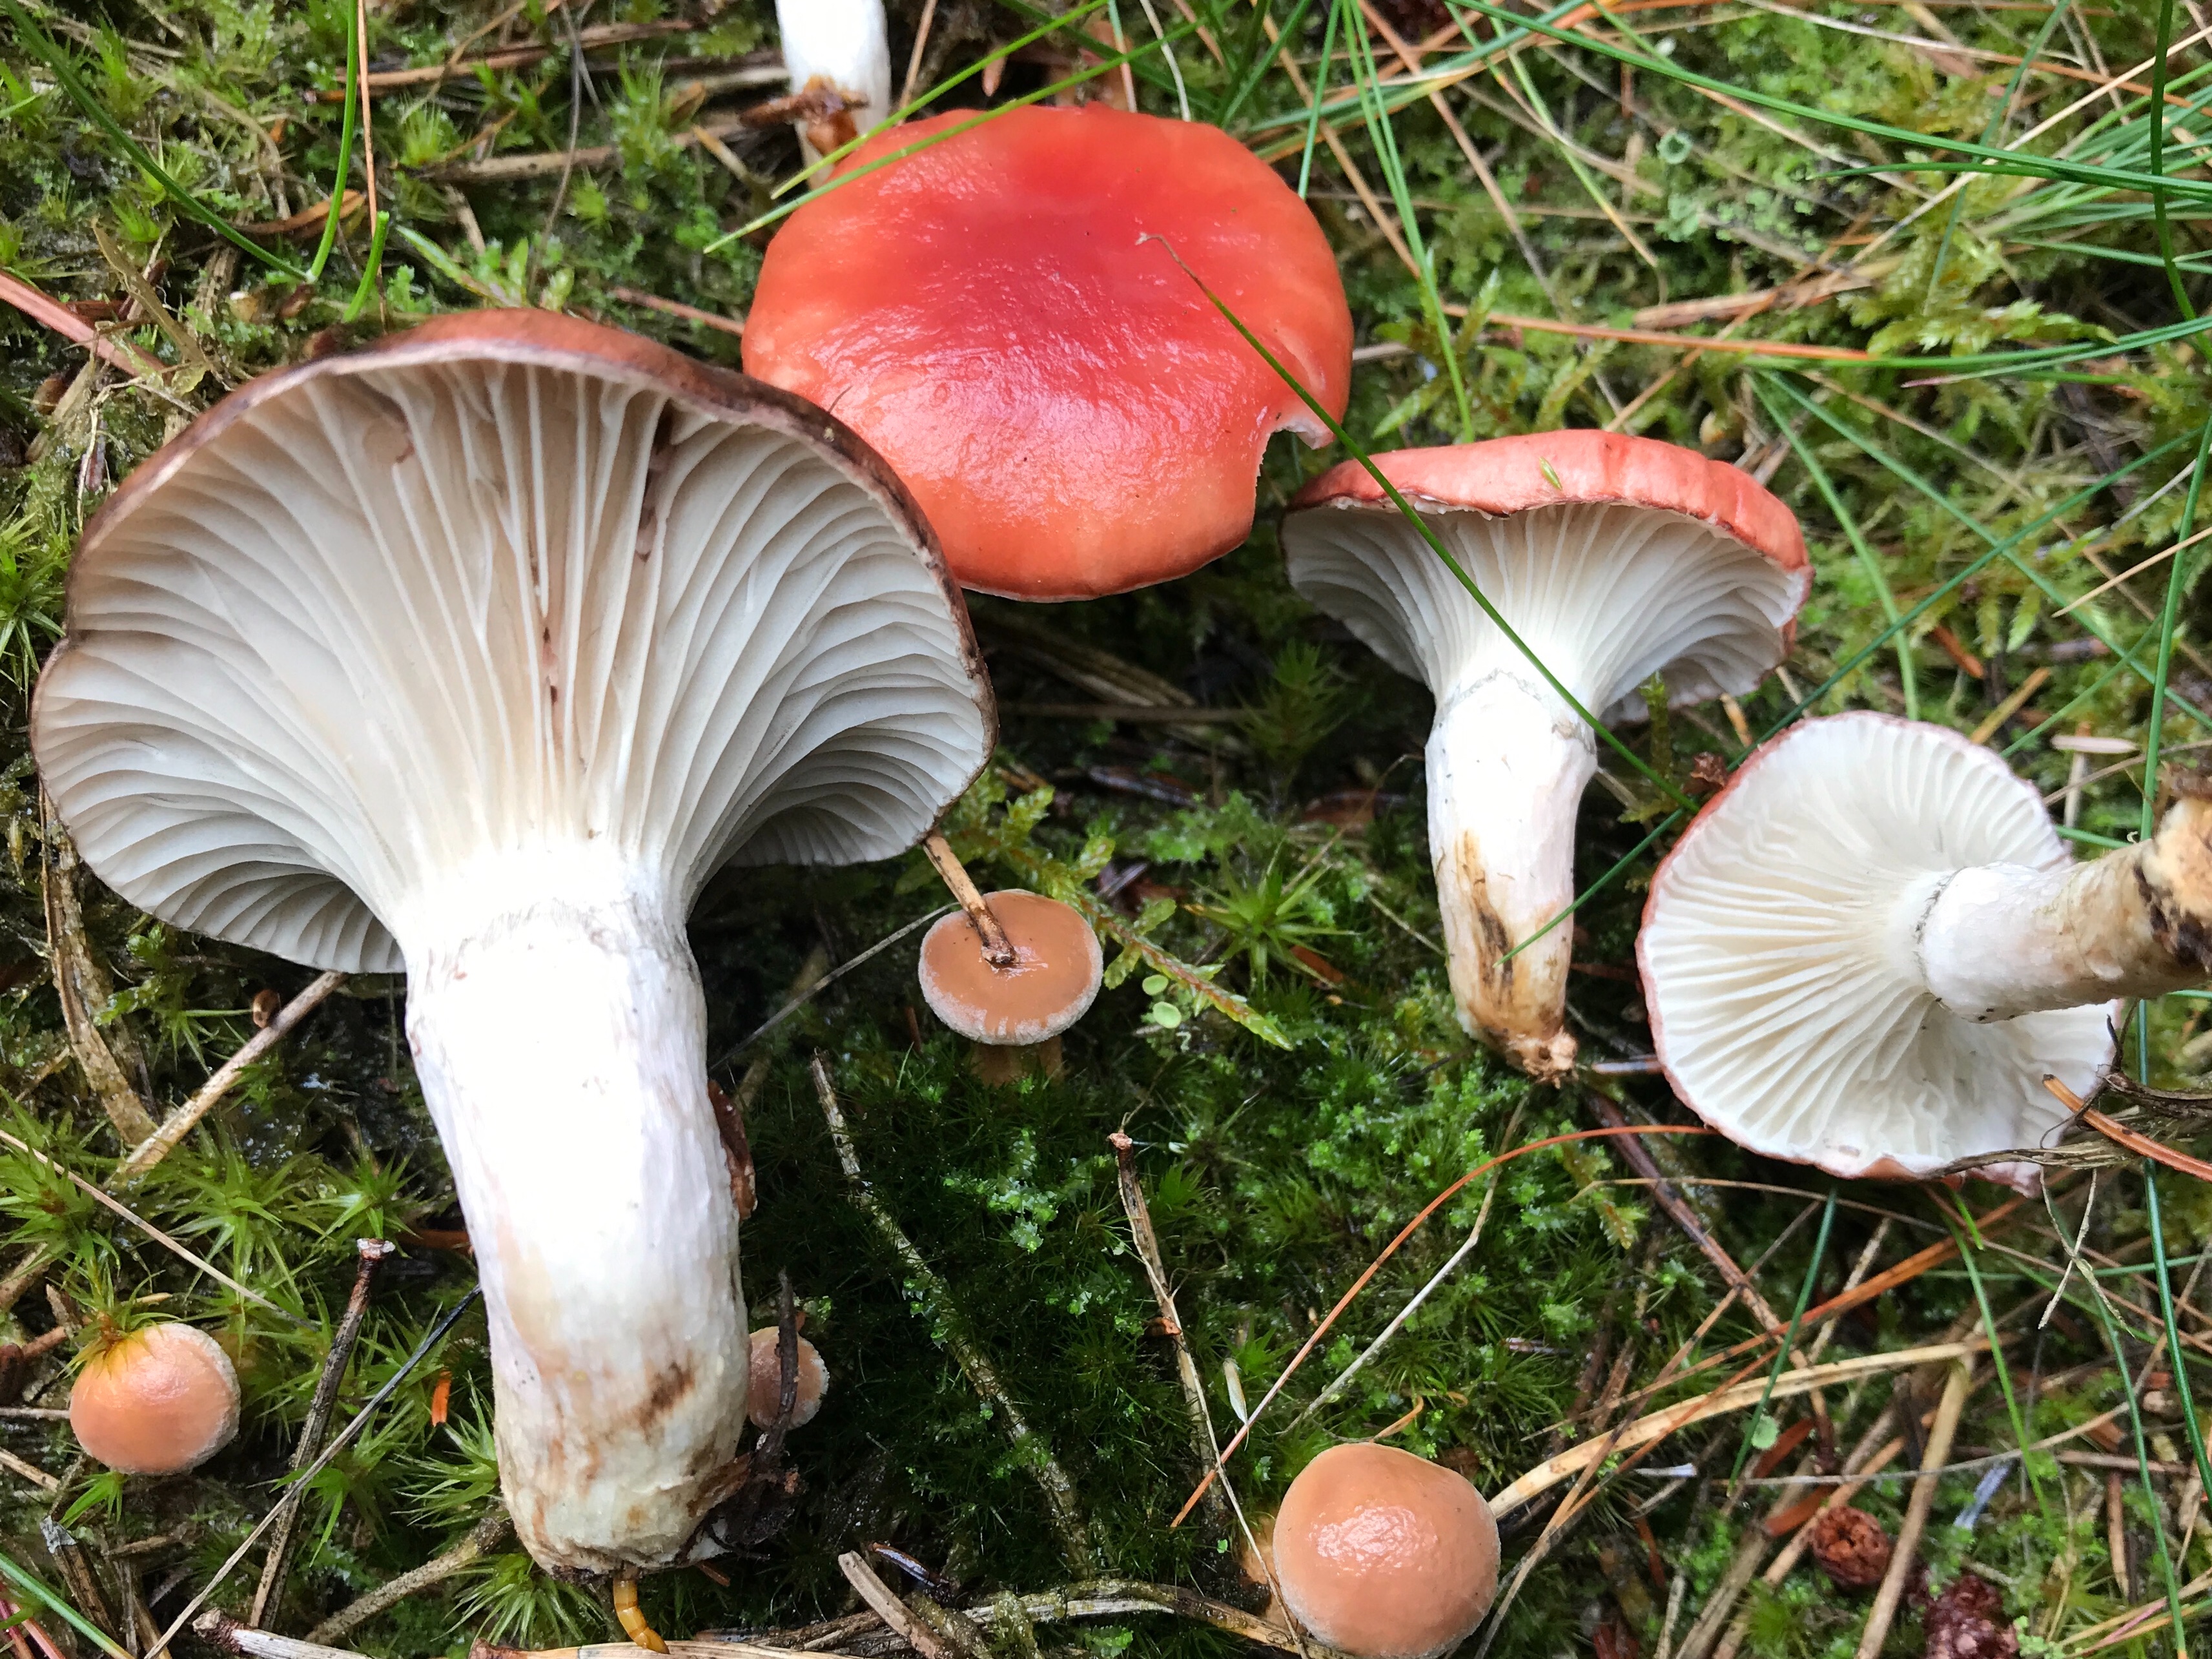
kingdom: Fungi
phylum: Basidiomycota
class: Agaricomycetes
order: Boletales
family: Gomphidiaceae
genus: Gomphidius
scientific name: Gomphidius roseus
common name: rosenrød slimslør
